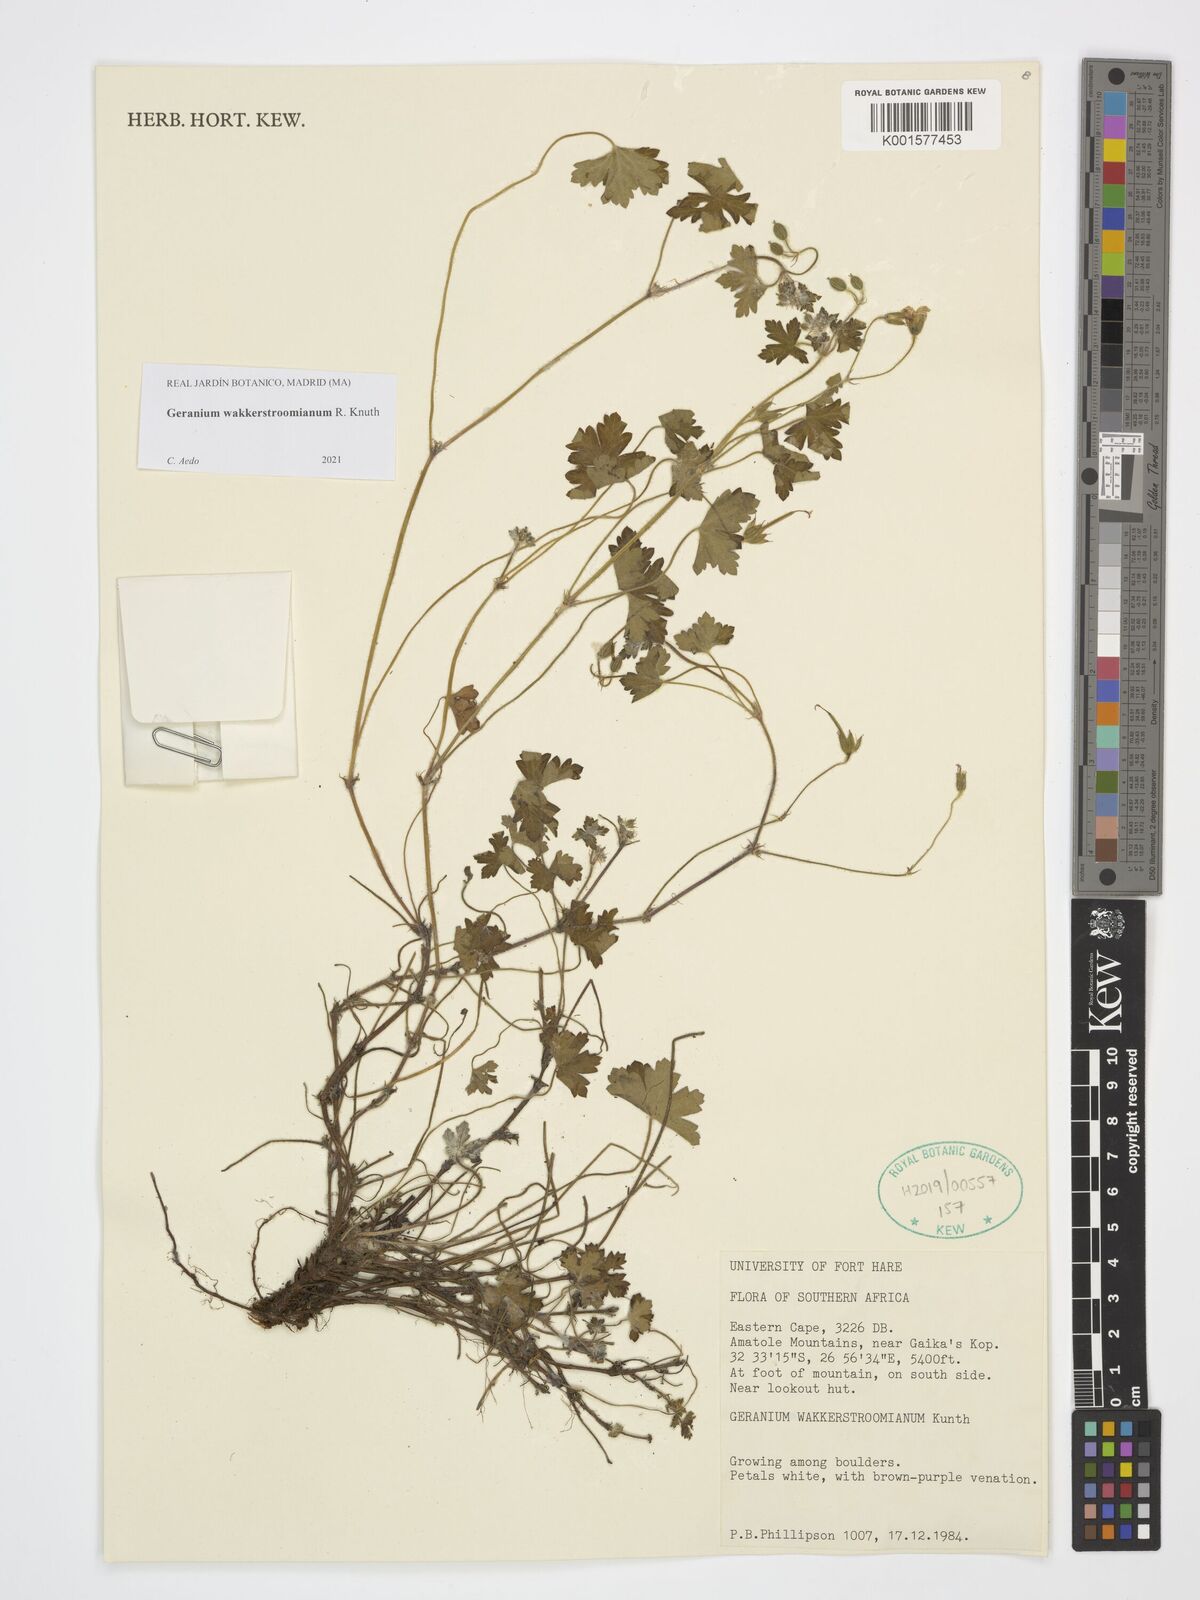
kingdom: Plantae
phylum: Tracheophyta
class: Magnoliopsida
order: Geraniales
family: Geraniaceae
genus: Geranium
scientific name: Geranium wakkerstroomianum
